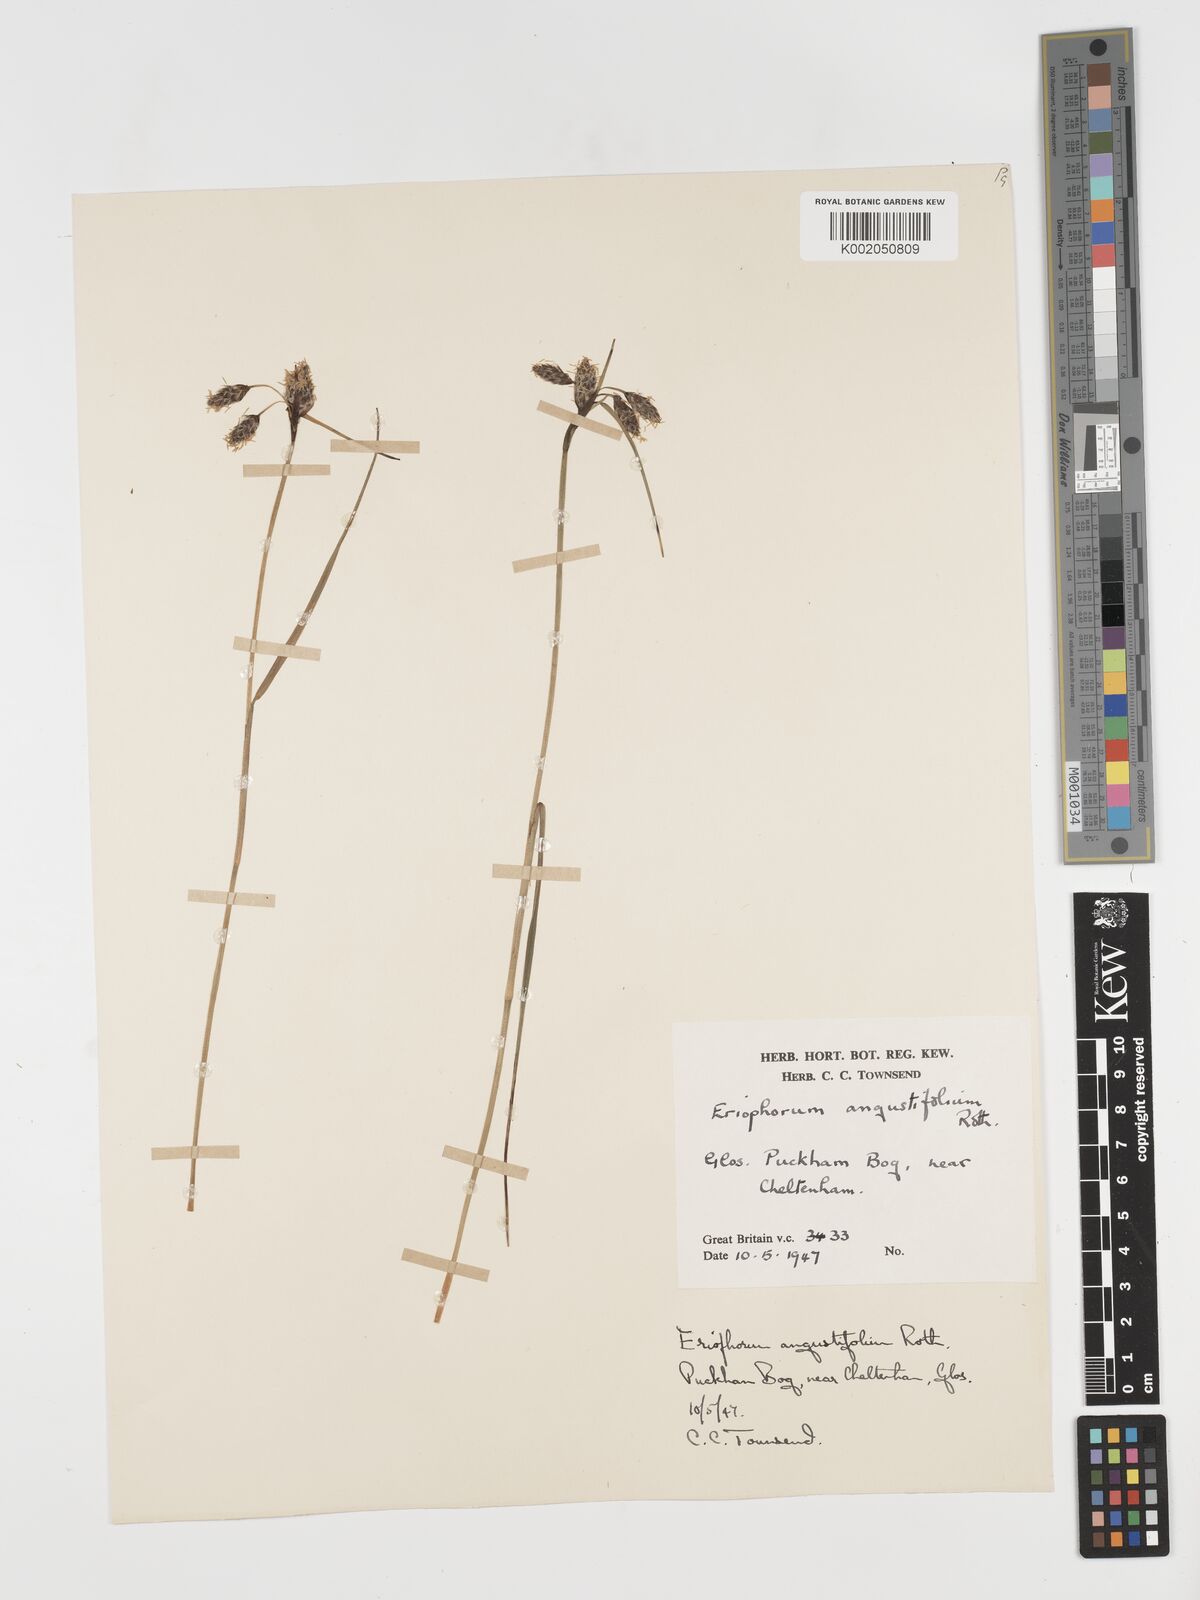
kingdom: Plantae
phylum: Tracheophyta
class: Liliopsida
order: Poales
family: Cyperaceae
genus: Eriophorum
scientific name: Eriophorum angustifolium
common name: Common cottongrass
